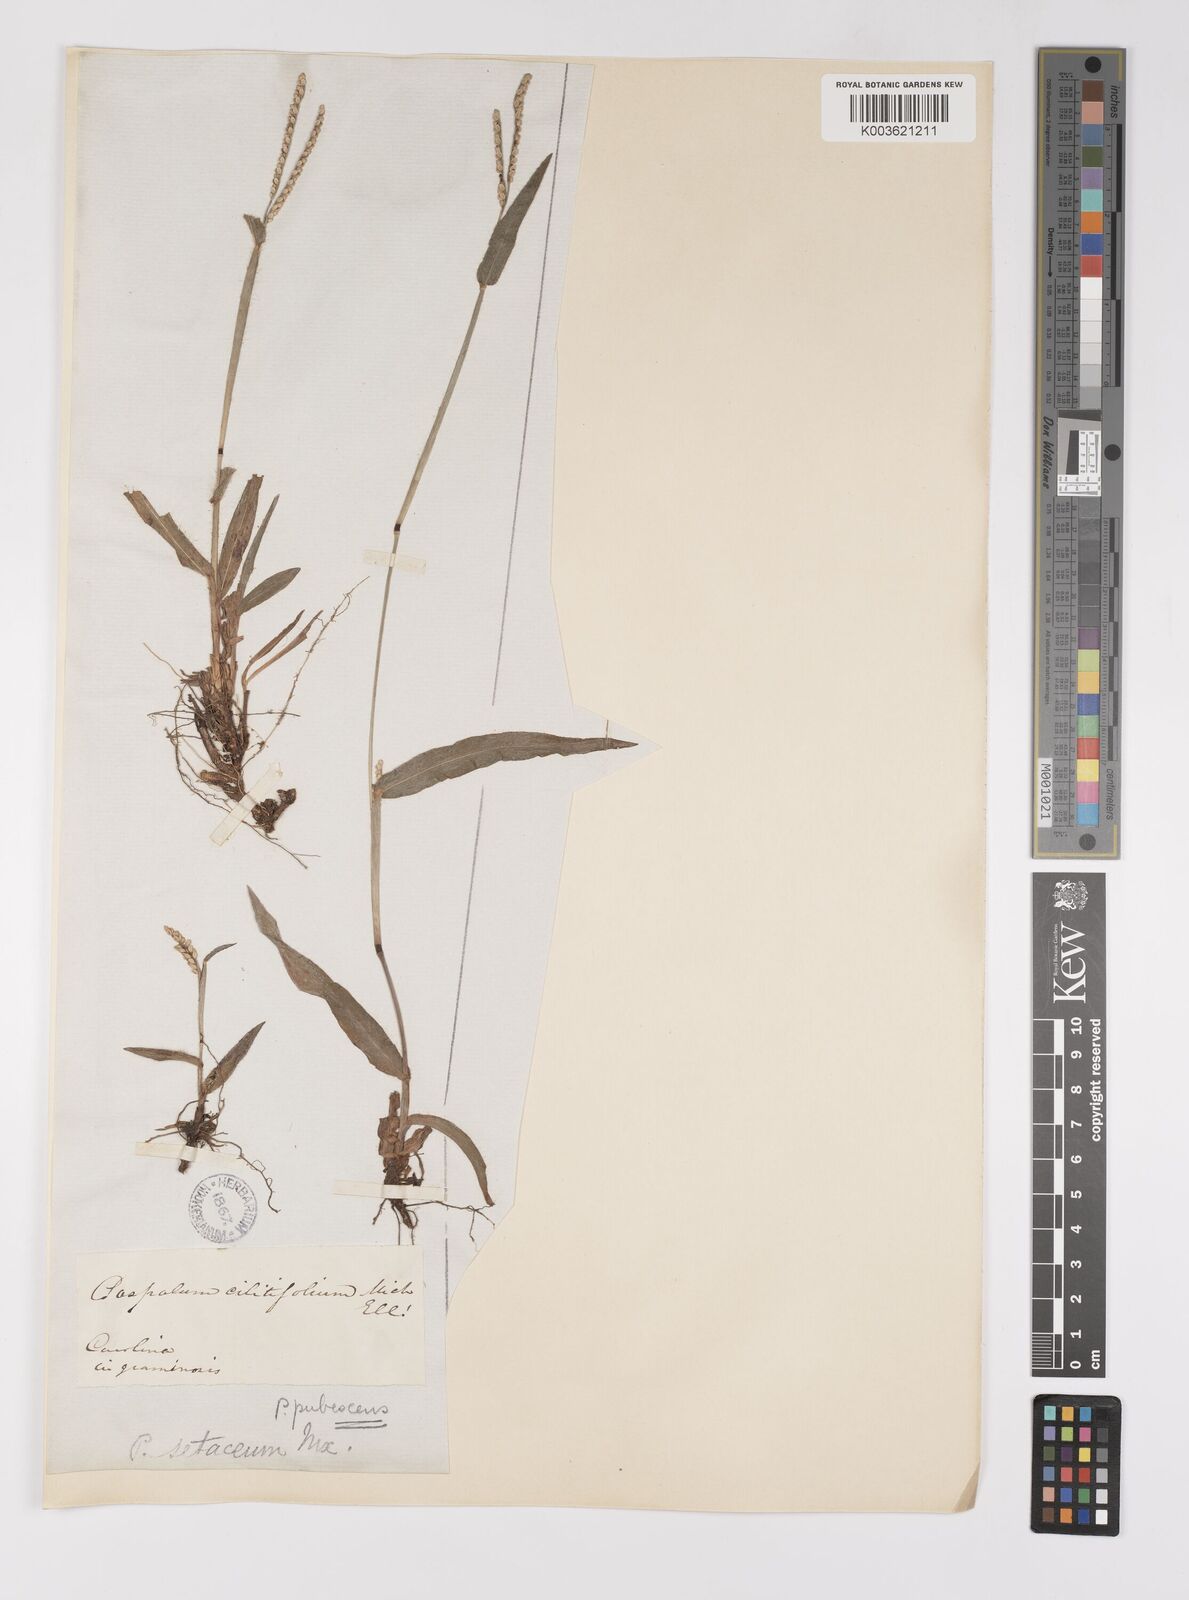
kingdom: Plantae
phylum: Tracheophyta
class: Liliopsida
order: Poales
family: Poaceae
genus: Paspalum
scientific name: Paspalum setaceum
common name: Slender paspalum
